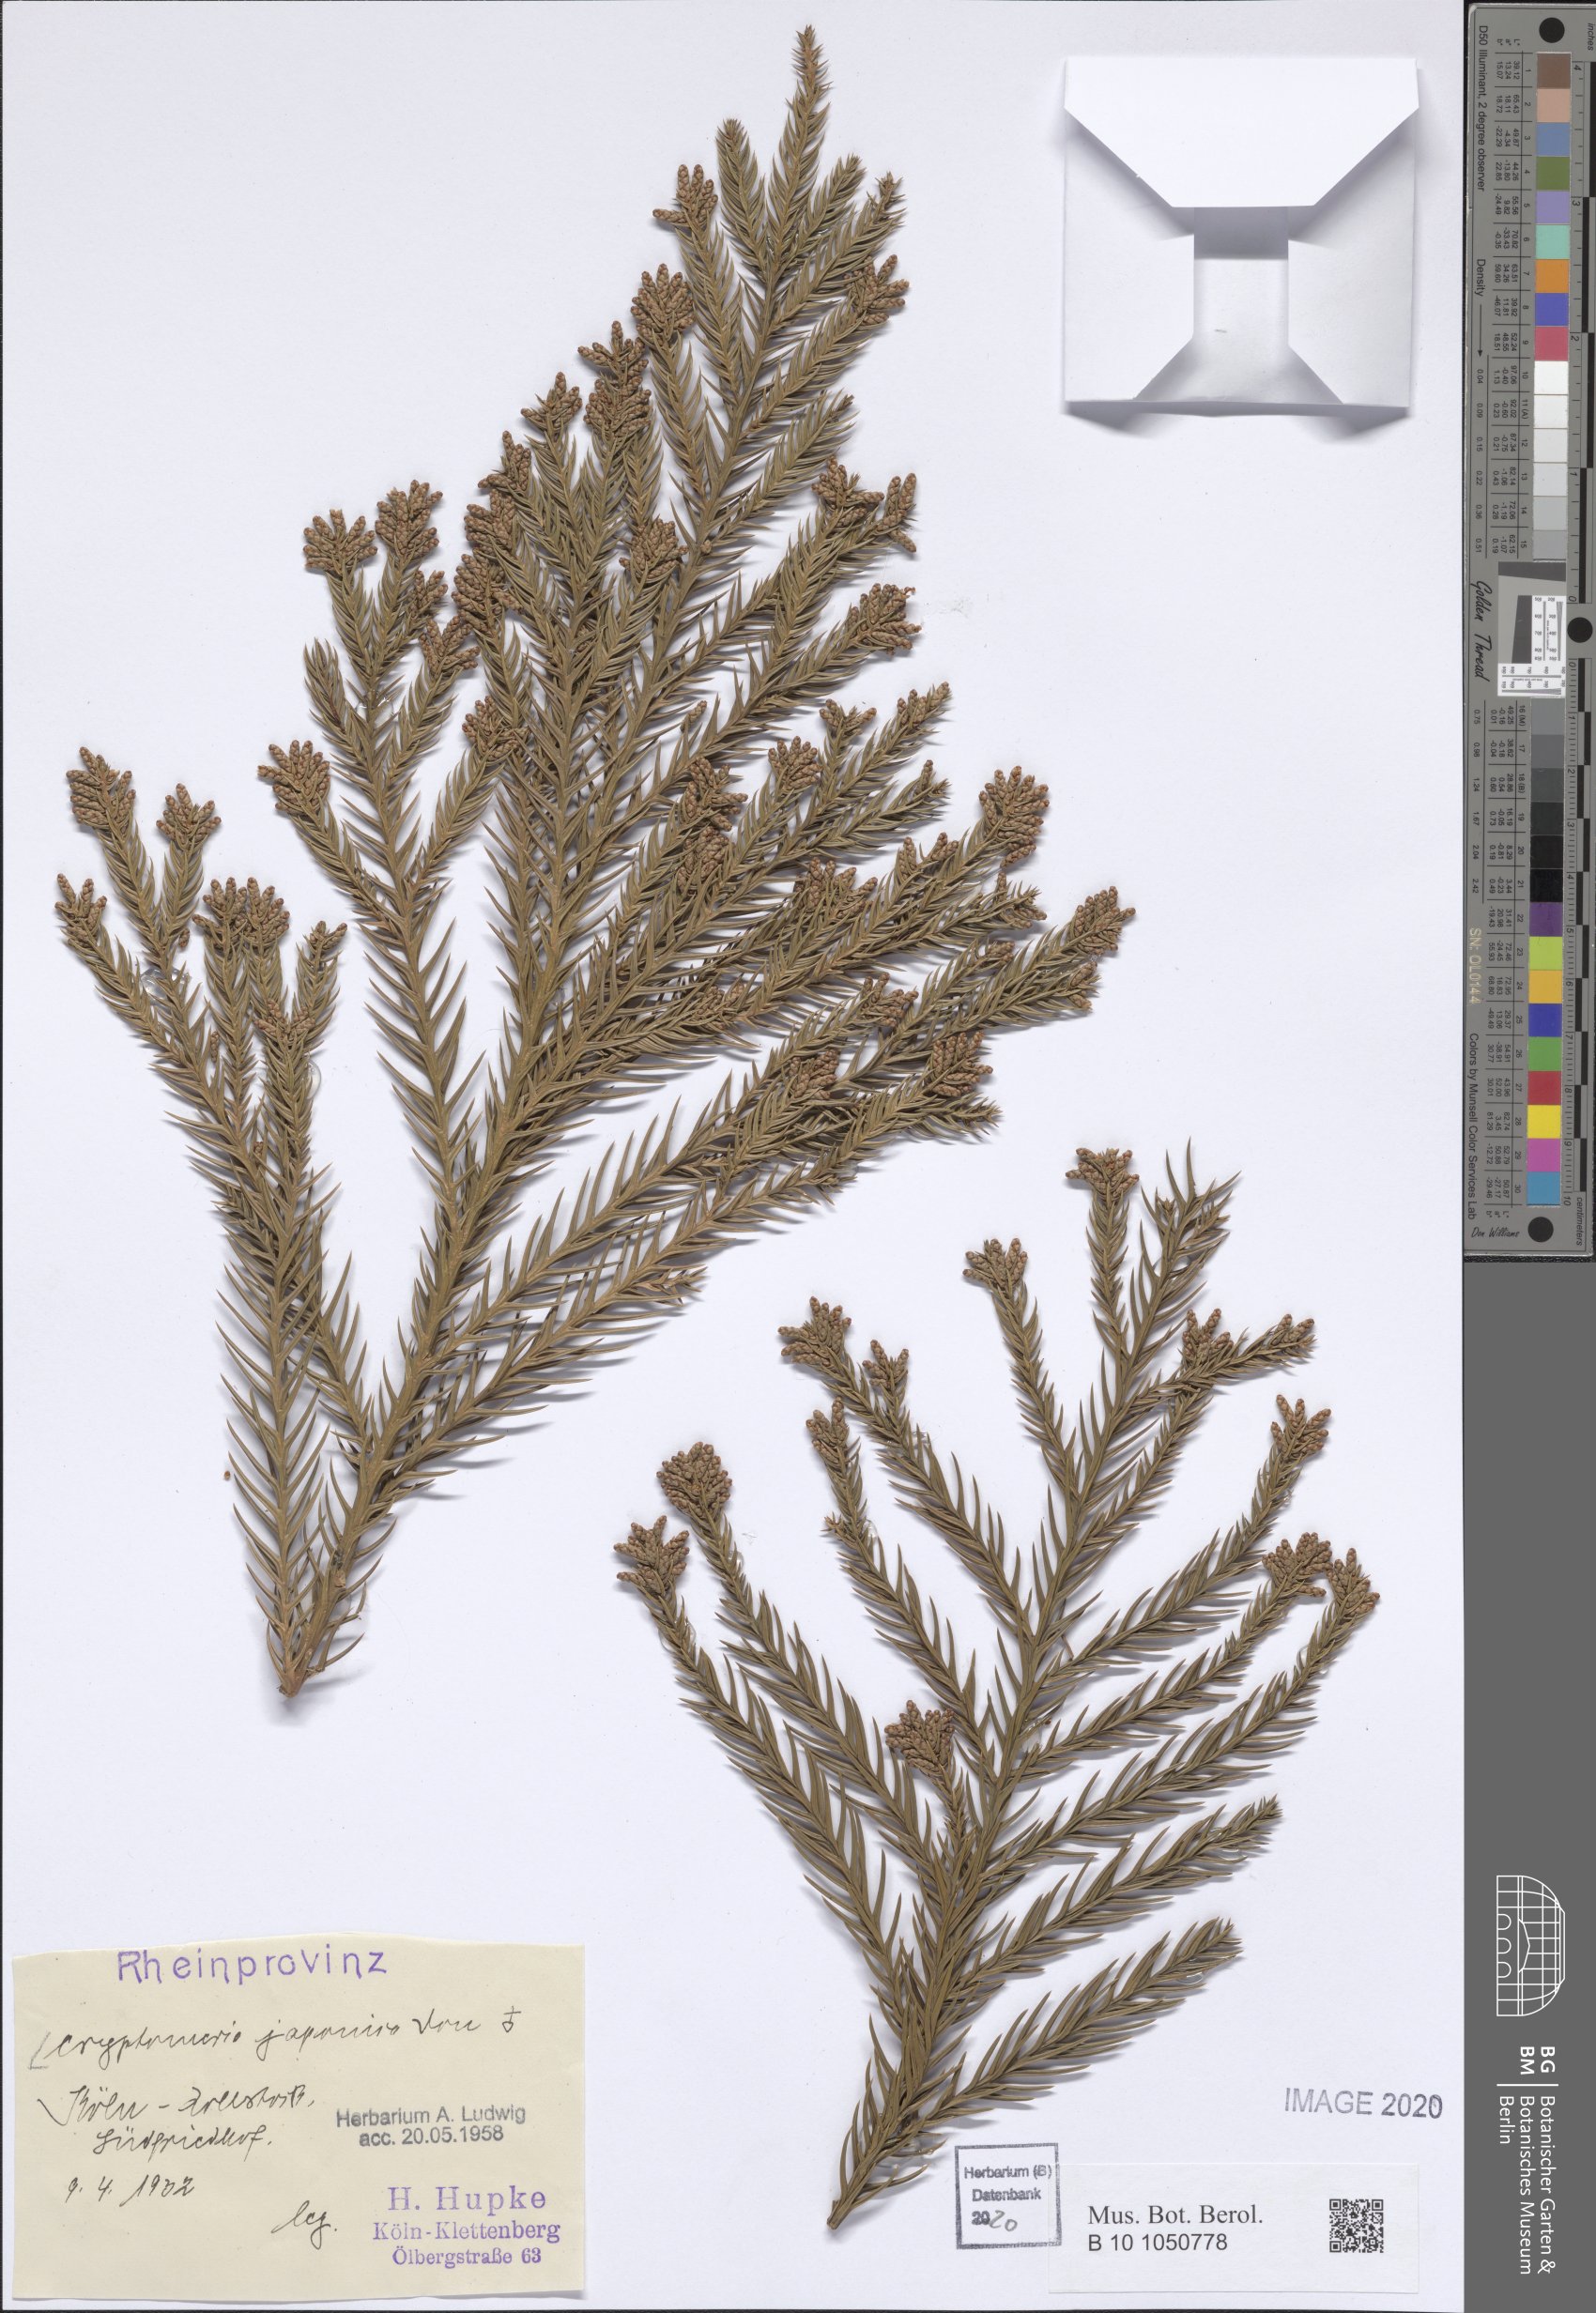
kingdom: Plantae
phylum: Tracheophyta
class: Pinopsida
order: Pinales
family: Cupressaceae
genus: Cryptomeria
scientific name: Cryptomeria japonica
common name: Japanese cedar
